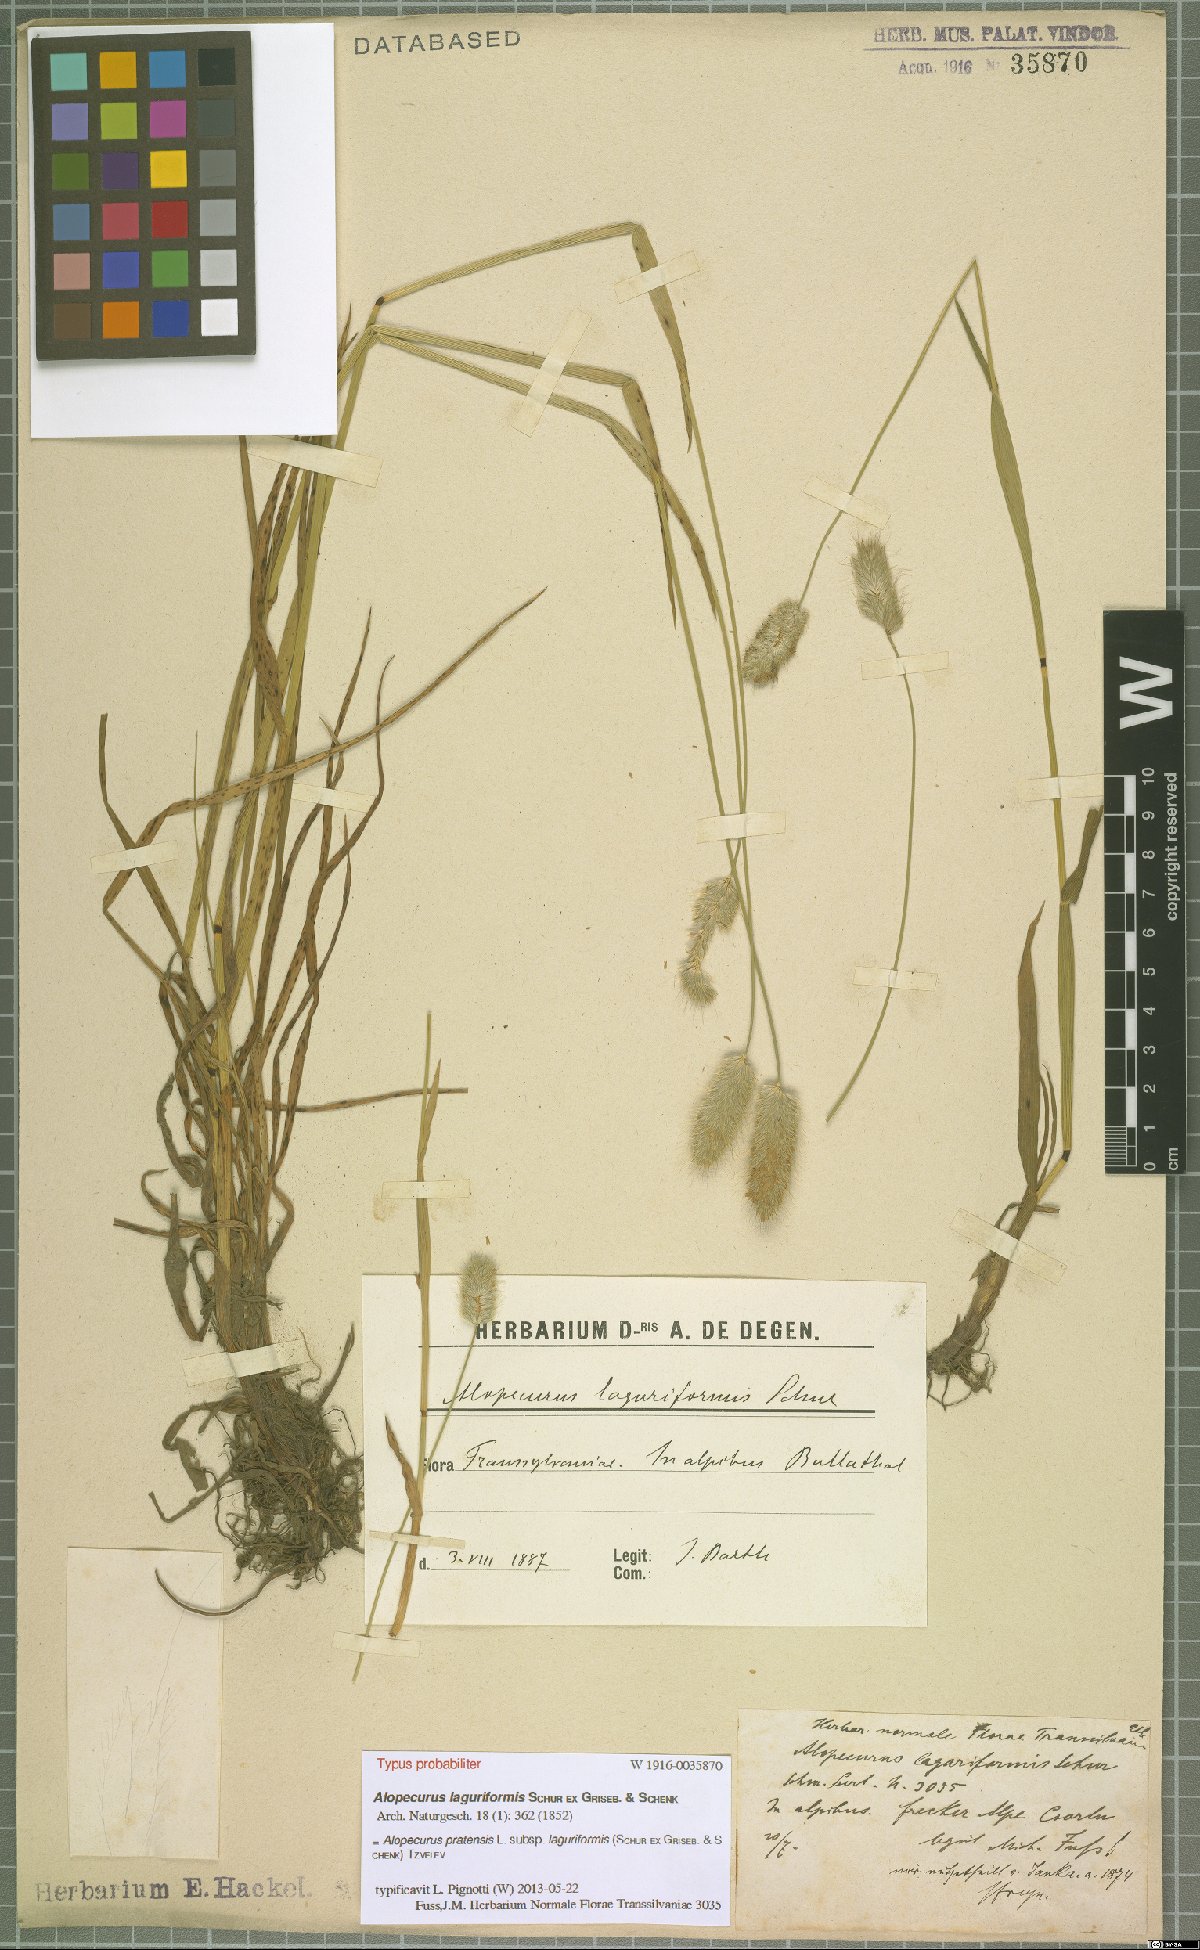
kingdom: Plantae
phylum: Tracheophyta
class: Liliopsida
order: Poales
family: Poaceae
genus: Alopecurus
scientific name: Alopecurus pratensis
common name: Meadow foxtail
